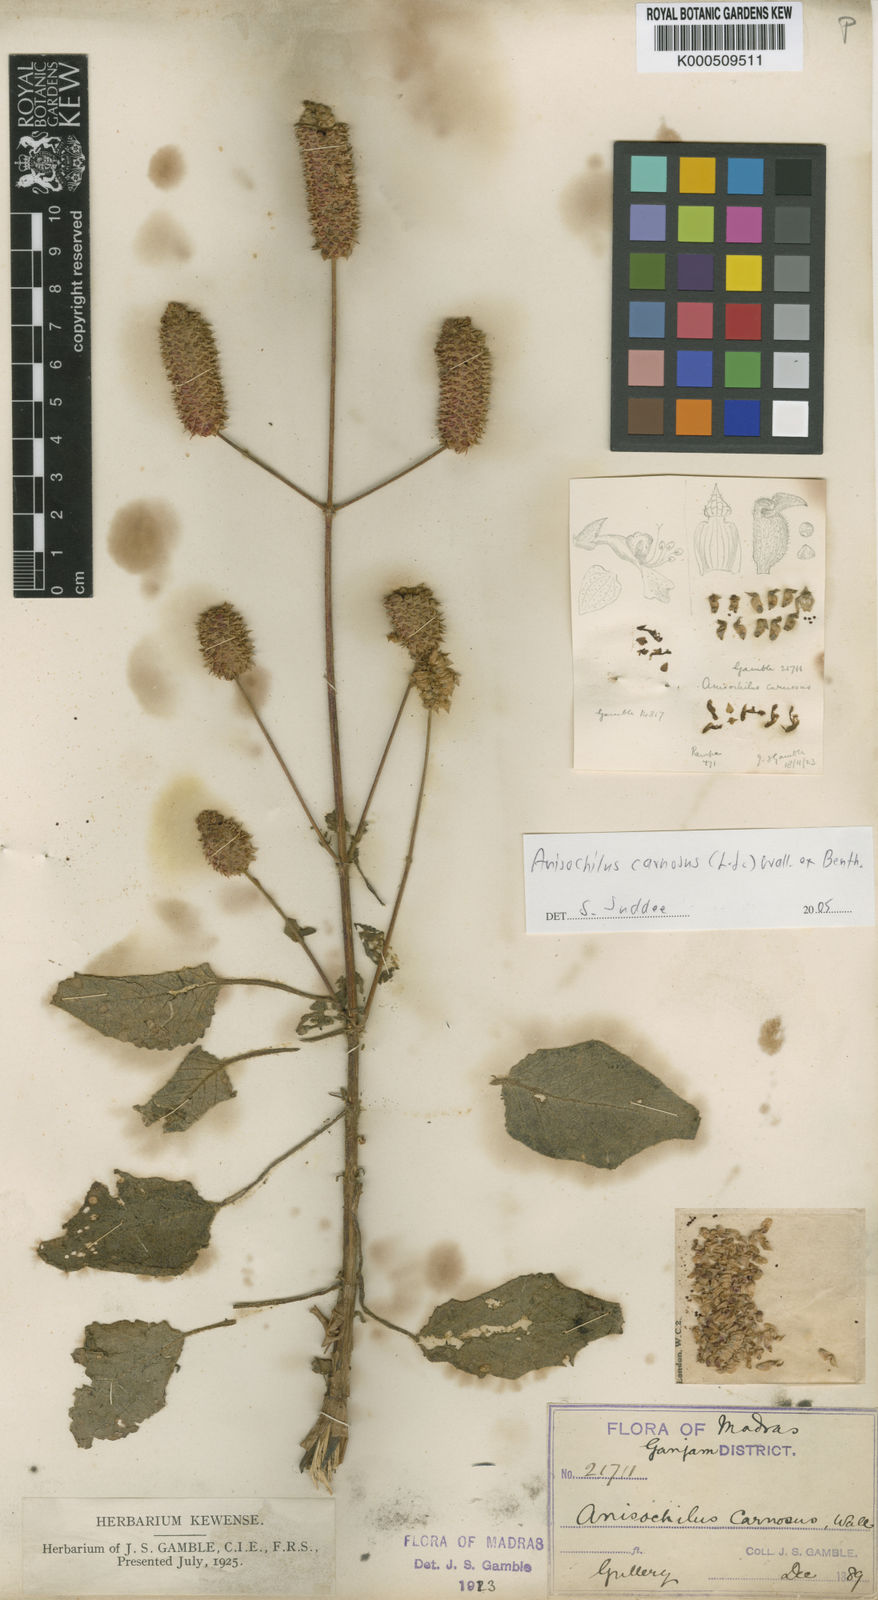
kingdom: Plantae
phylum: Tracheophyta
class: Magnoliopsida
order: Lamiales
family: Lamiaceae
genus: Anisochilus
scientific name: Anisochilus
